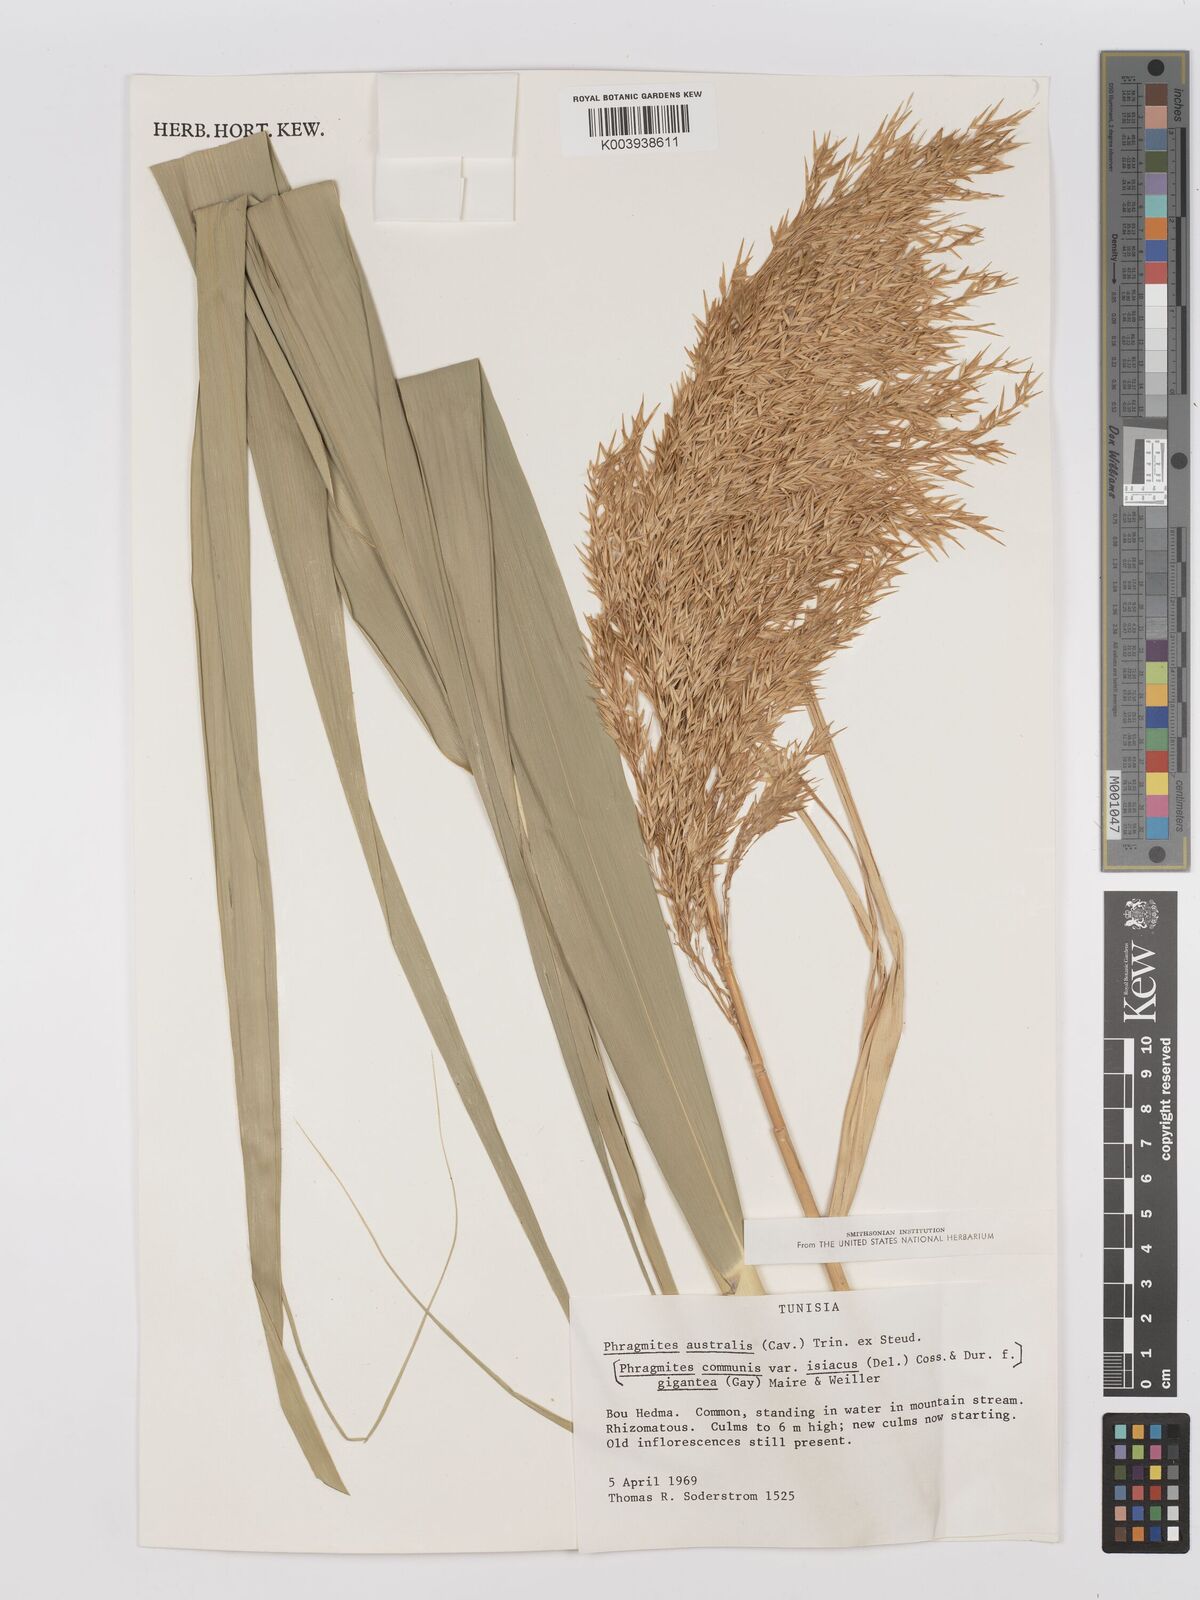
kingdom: Plantae
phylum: Tracheophyta
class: Liliopsida
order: Poales
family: Poaceae
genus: Phragmites
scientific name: Phragmites australis
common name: Common reed
